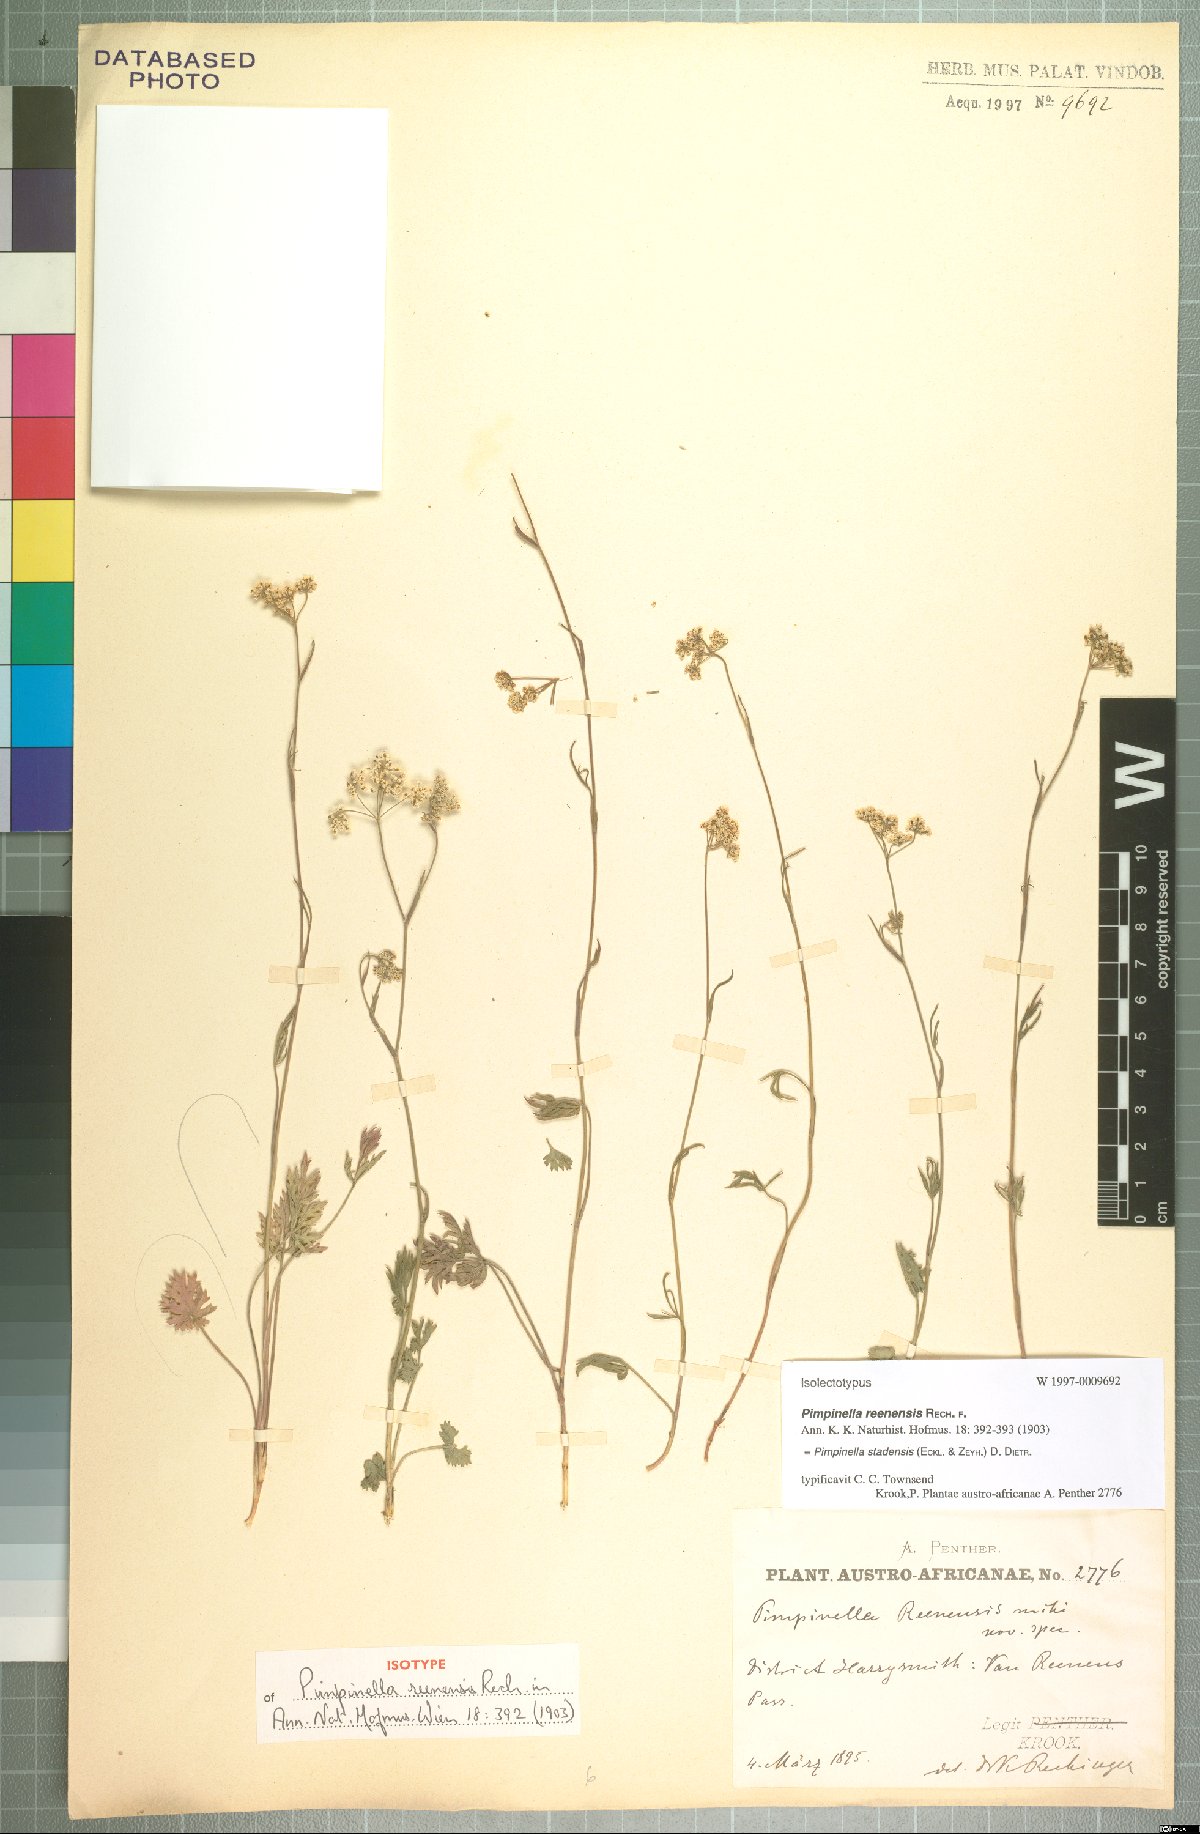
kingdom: Plantae
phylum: Tracheophyta
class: Magnoliopsida
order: Apiales
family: Apiaceae
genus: Pimpinella
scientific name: Pimpinella caffra
